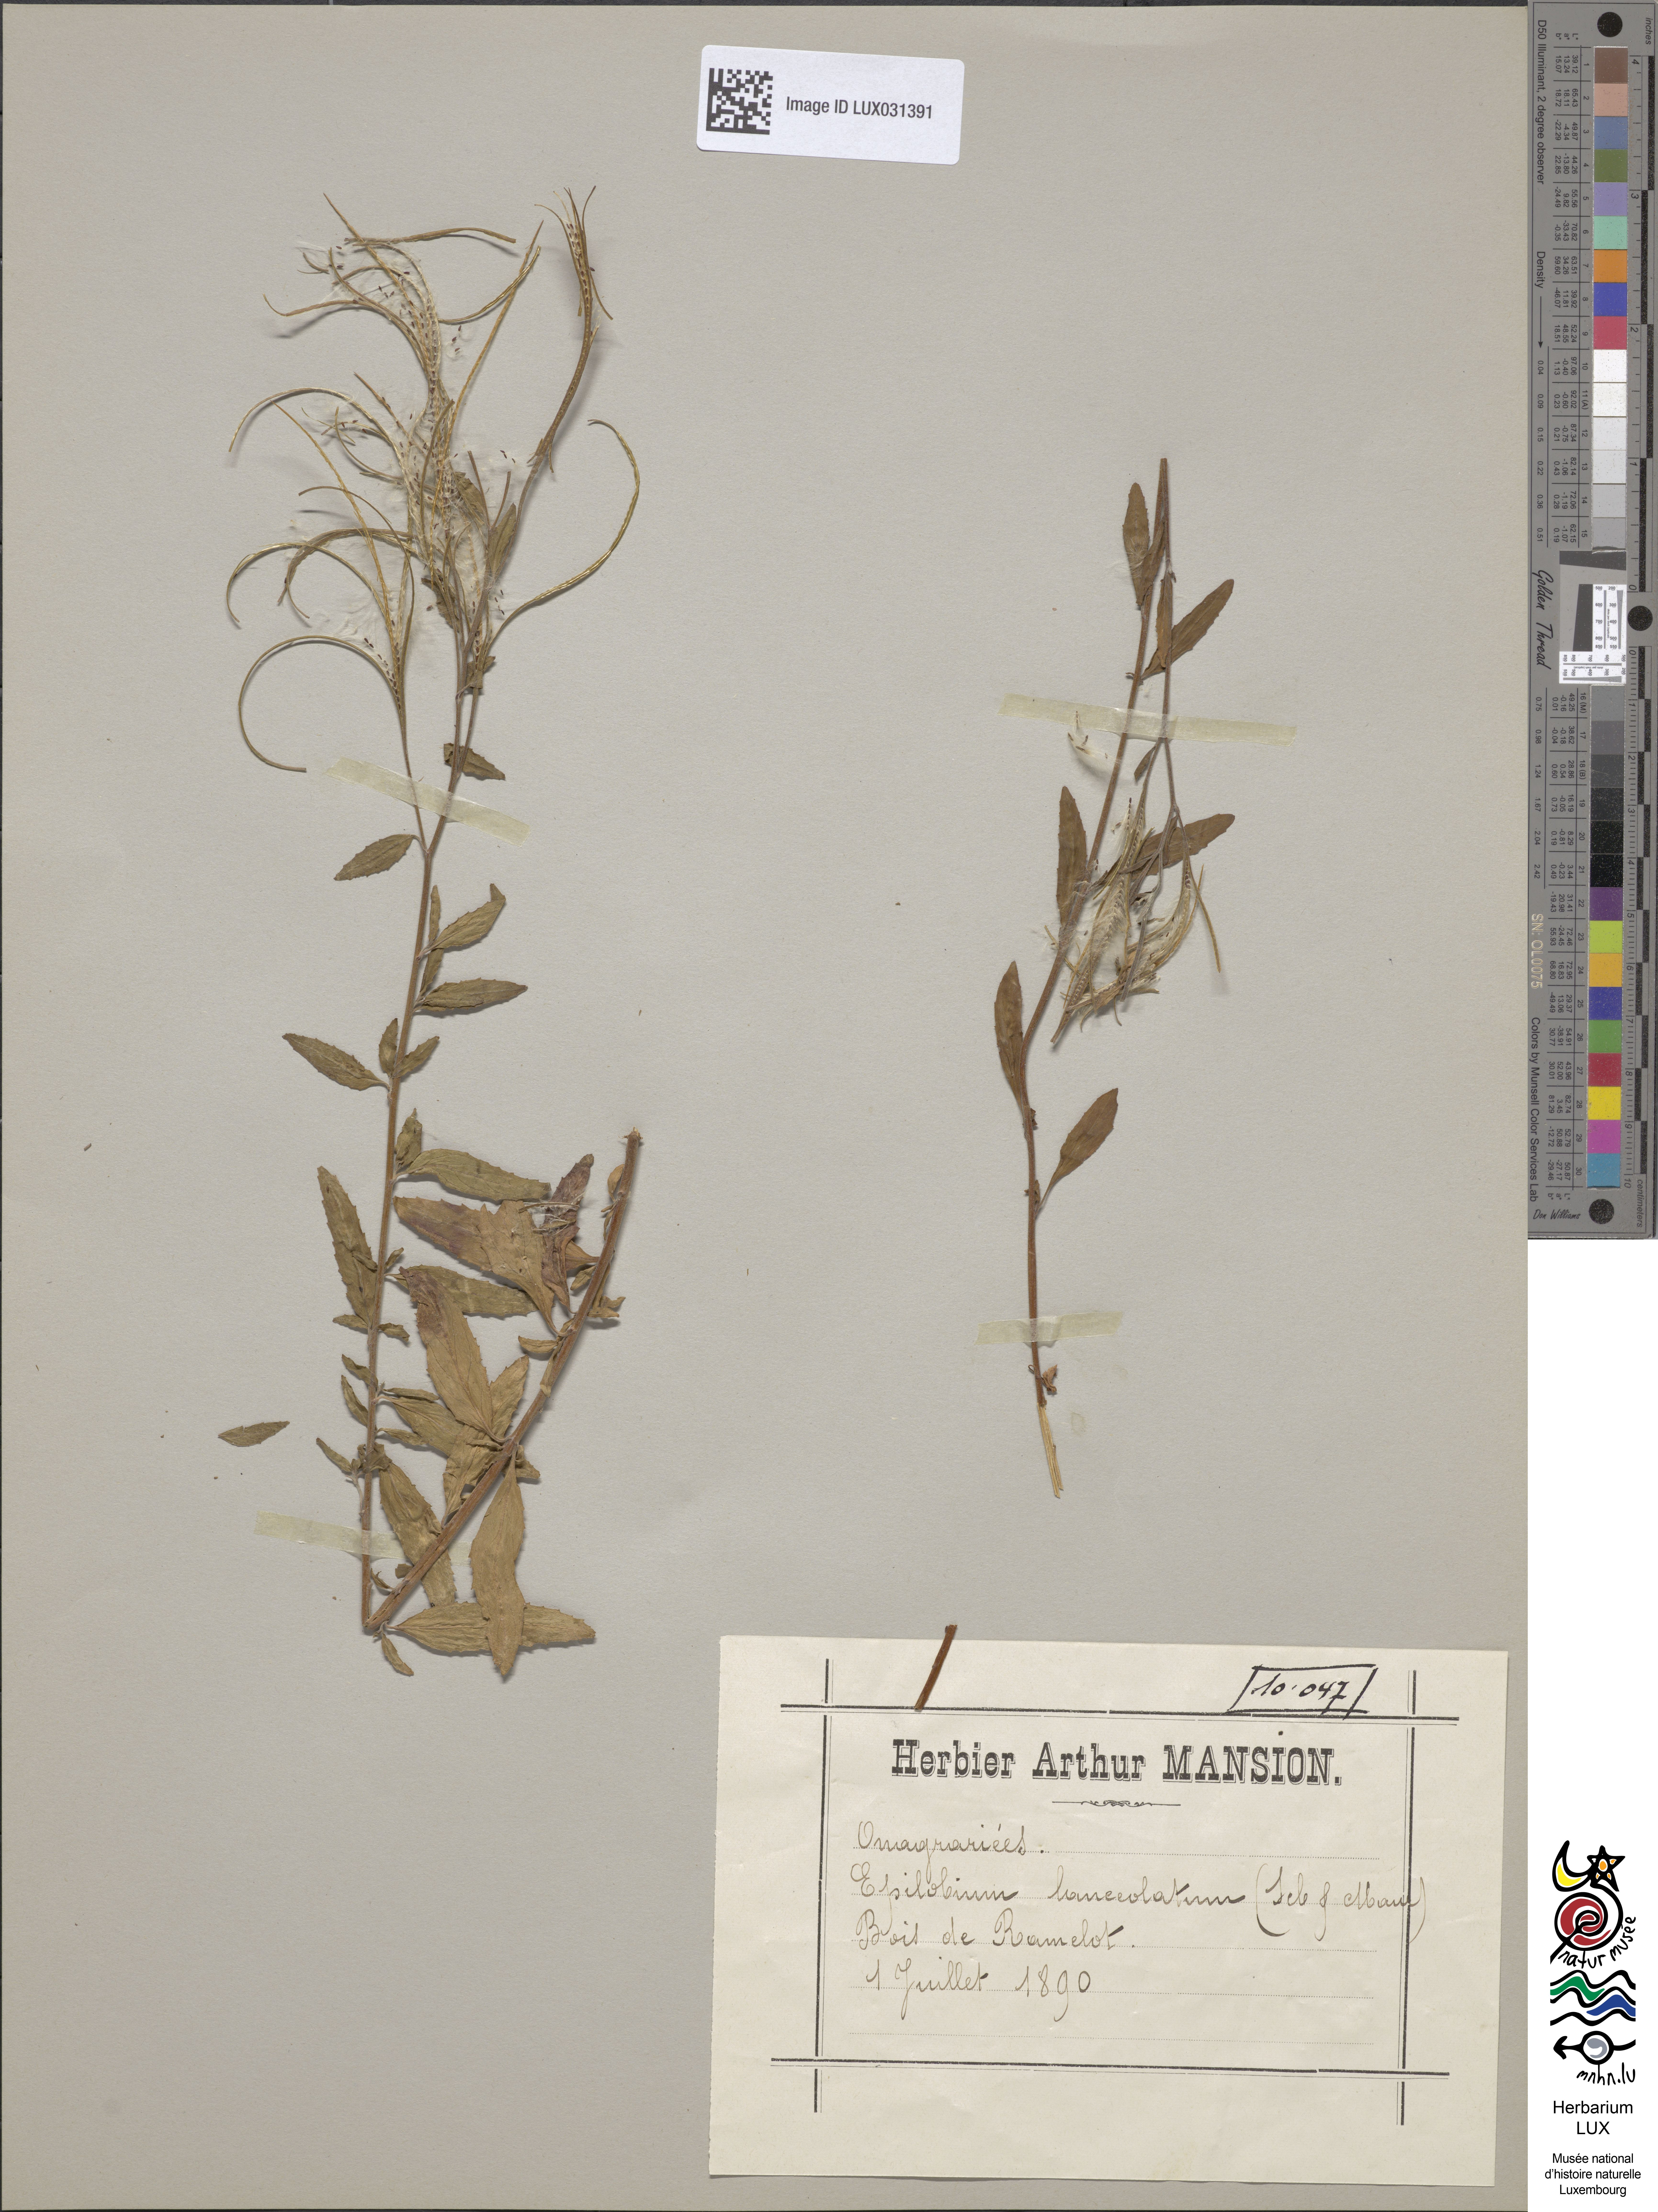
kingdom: Plantae
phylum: Tracheophyta
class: Magnoliopsida
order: Myrtales
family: Onagraceae
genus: Epilobium
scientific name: Epilobium lanceolatum
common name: Spear-leaved willowherb
